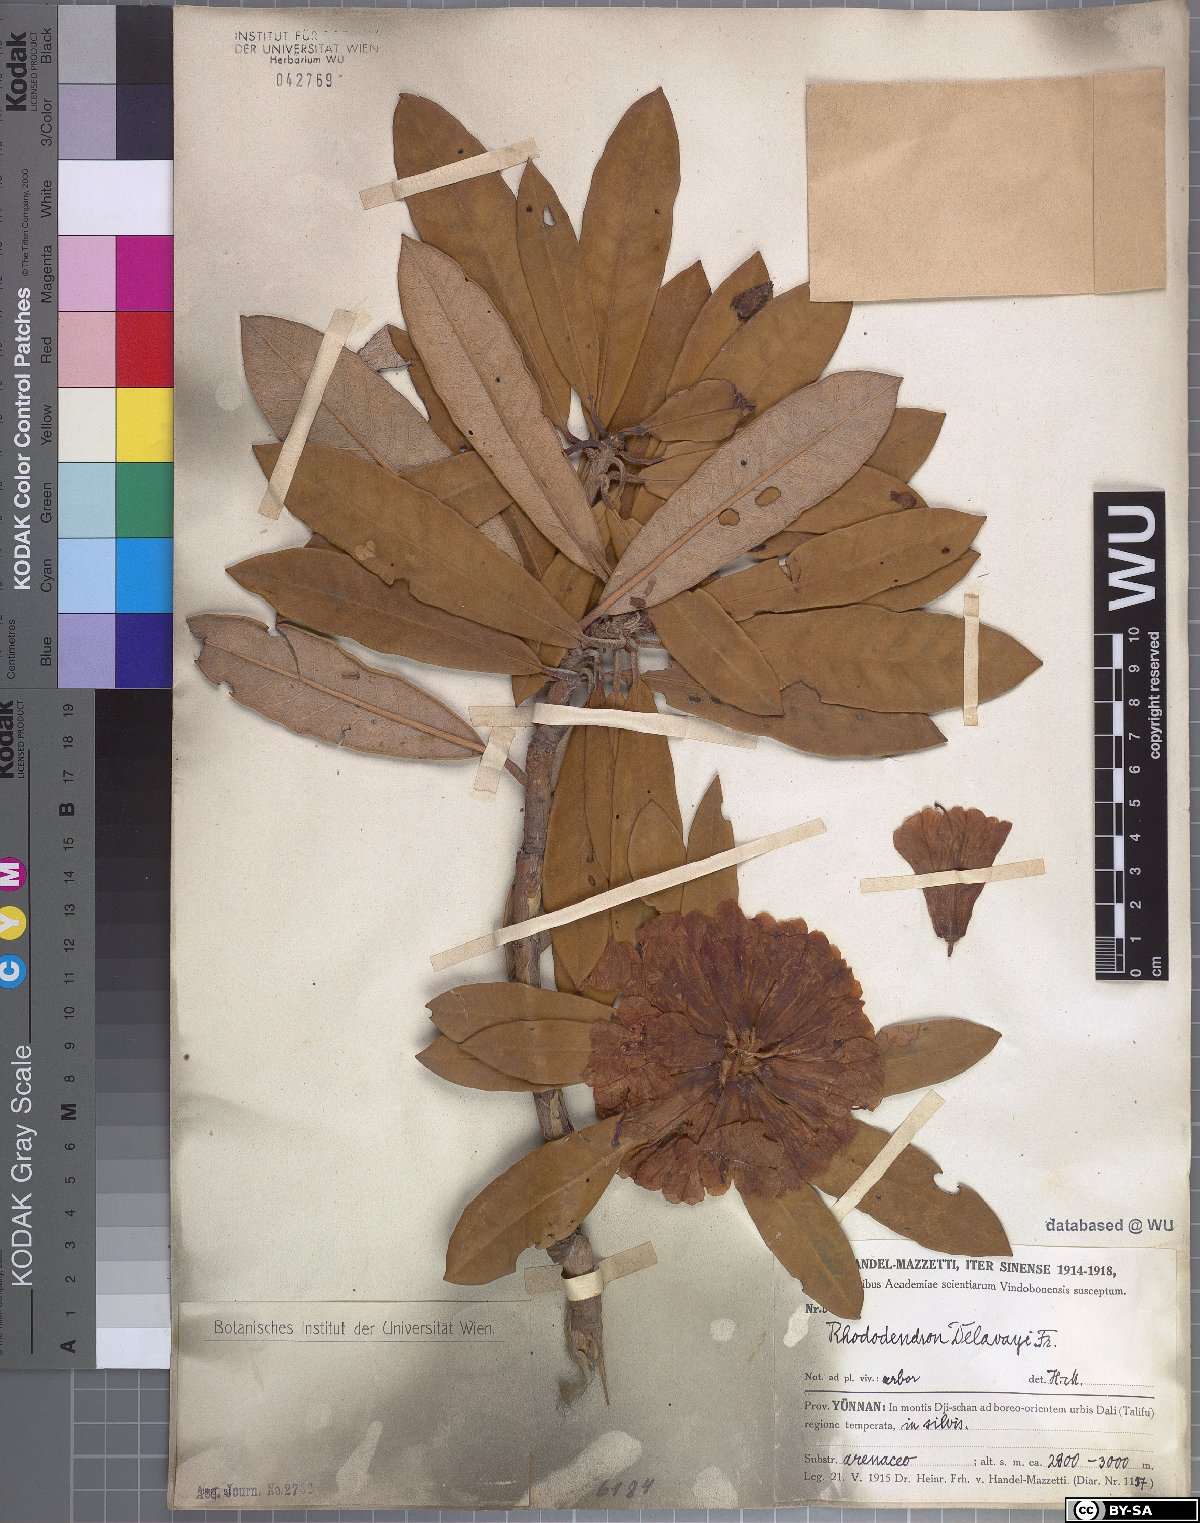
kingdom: Plantae
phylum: Tracheophyta
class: Magnoliopsida
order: Ericales
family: Ericaceae
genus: Rhododendron
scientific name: Rhododendron delavayi
